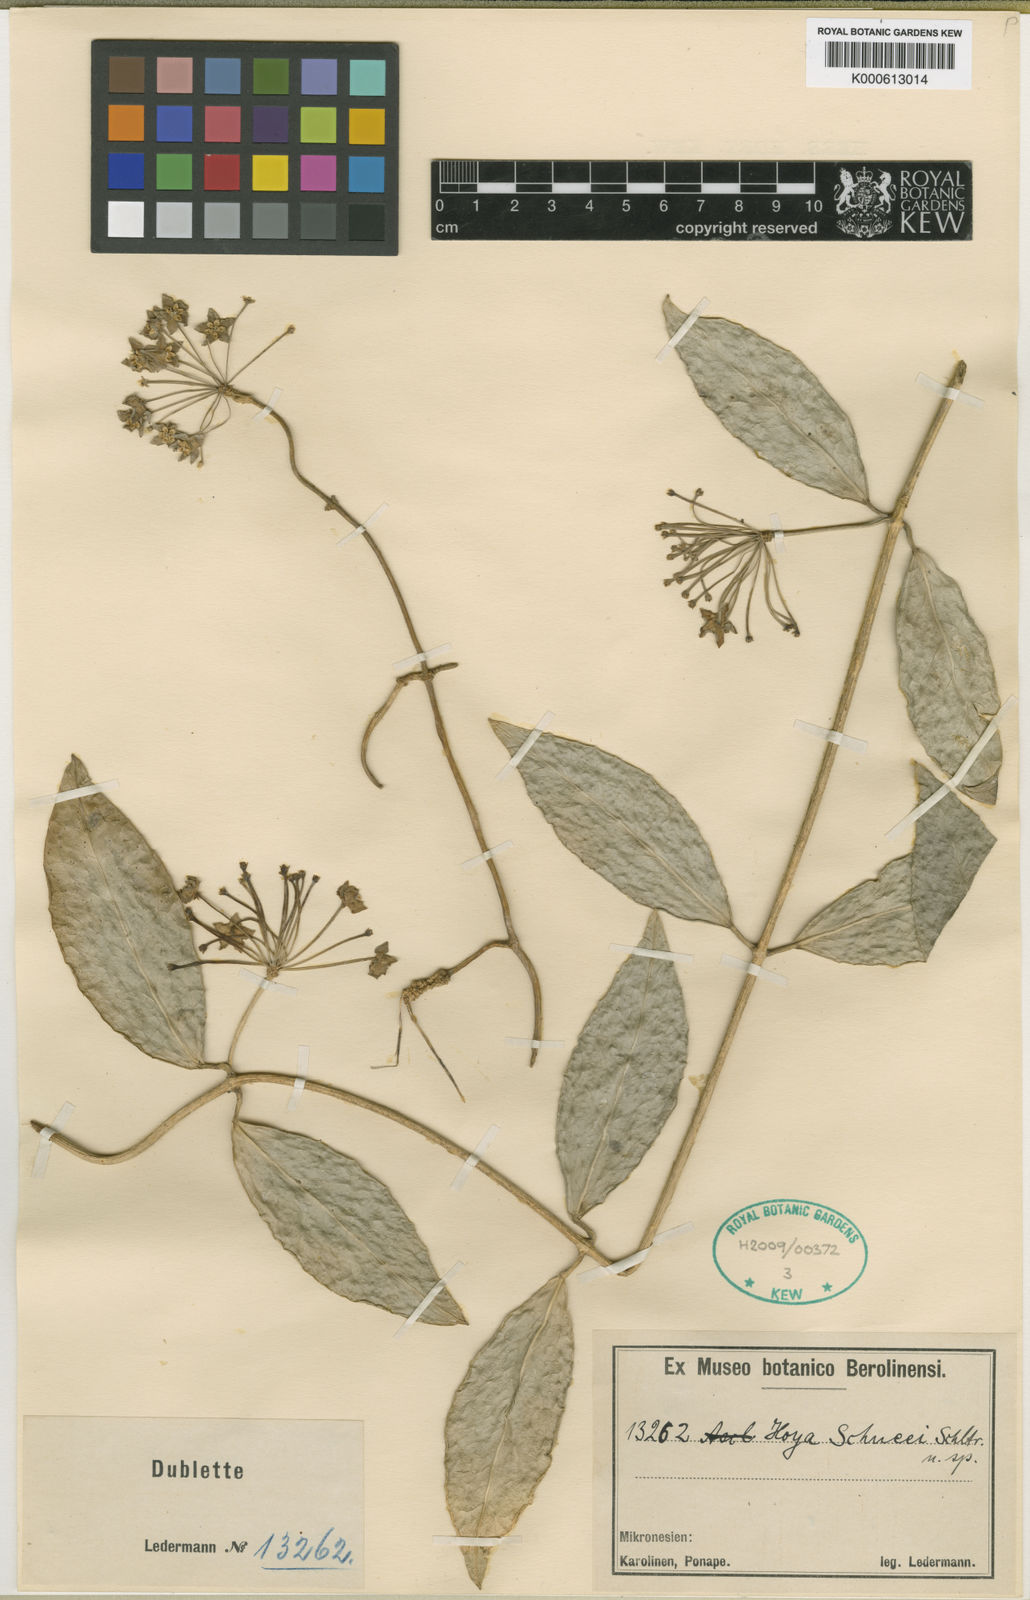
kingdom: Plantae
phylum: Tracheophyta
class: Magnoliopsida
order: Gentianales
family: Apocynaceae
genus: Hoya
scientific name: Hoya schneei
